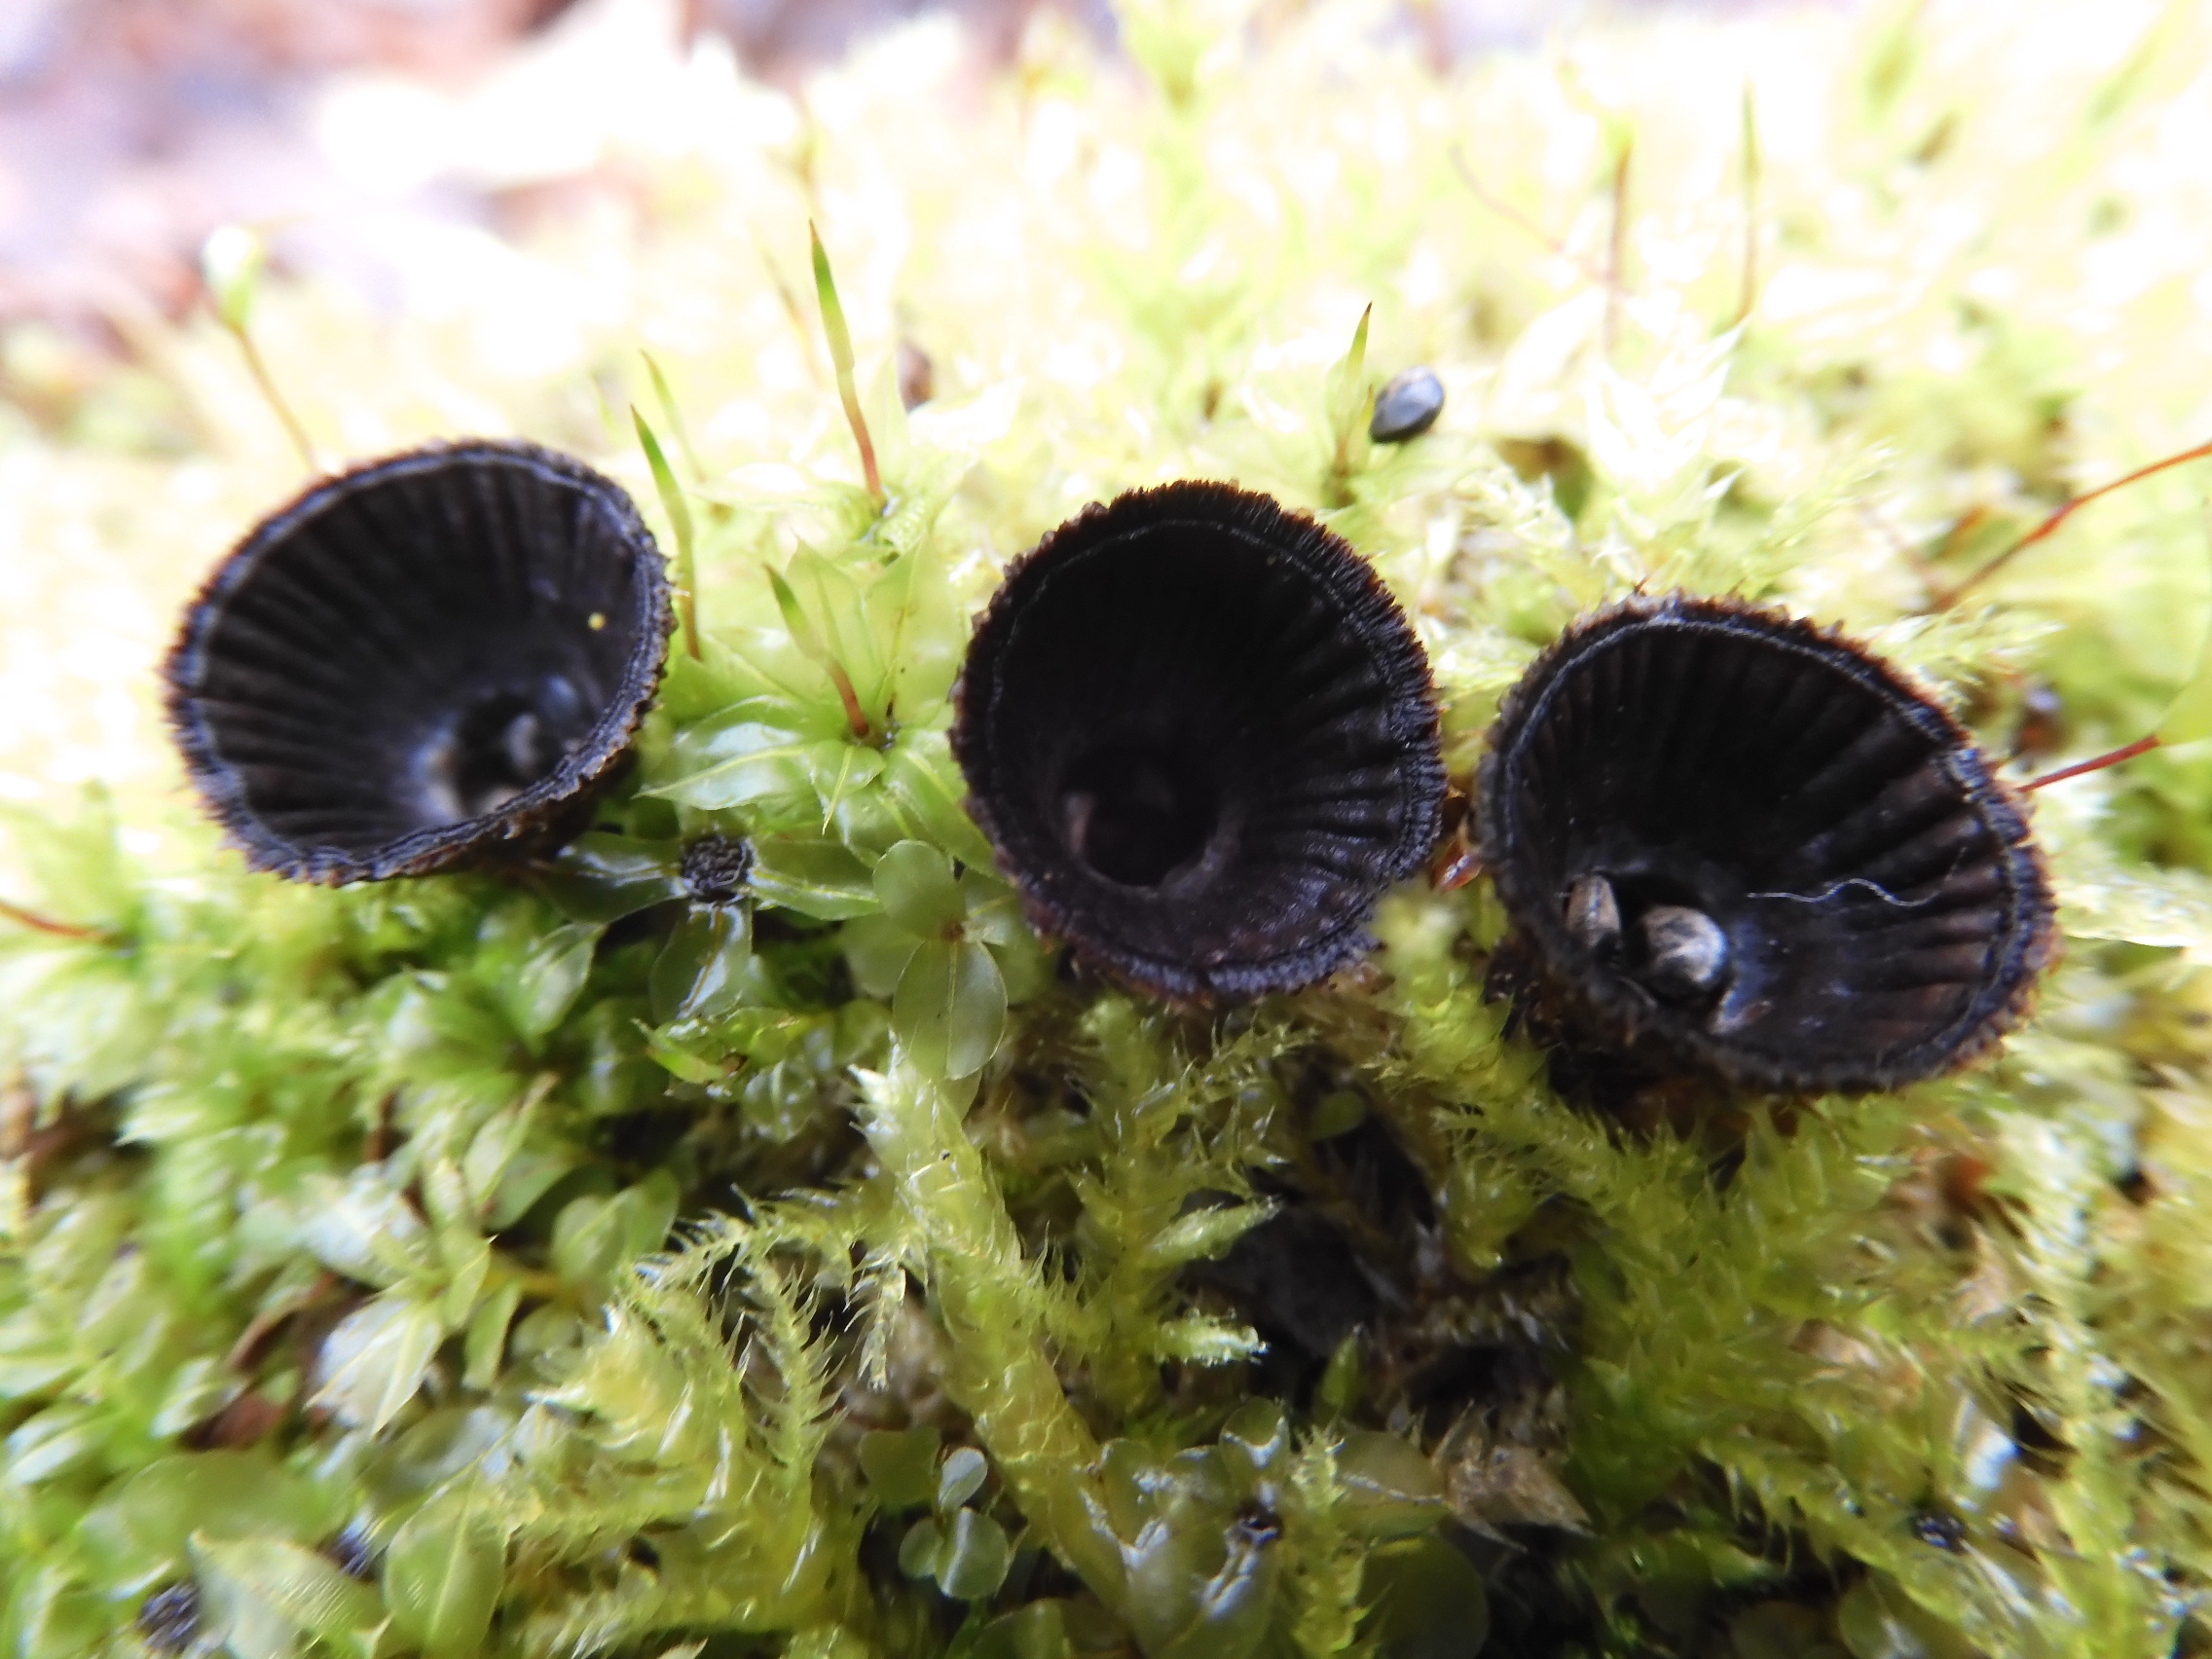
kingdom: Fungi
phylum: Basidiomycota
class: Agaricomycetes
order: Agaricales
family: Agaricaceae
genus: Cyathus
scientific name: Cyathus striatus
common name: Fluted bird's nest
